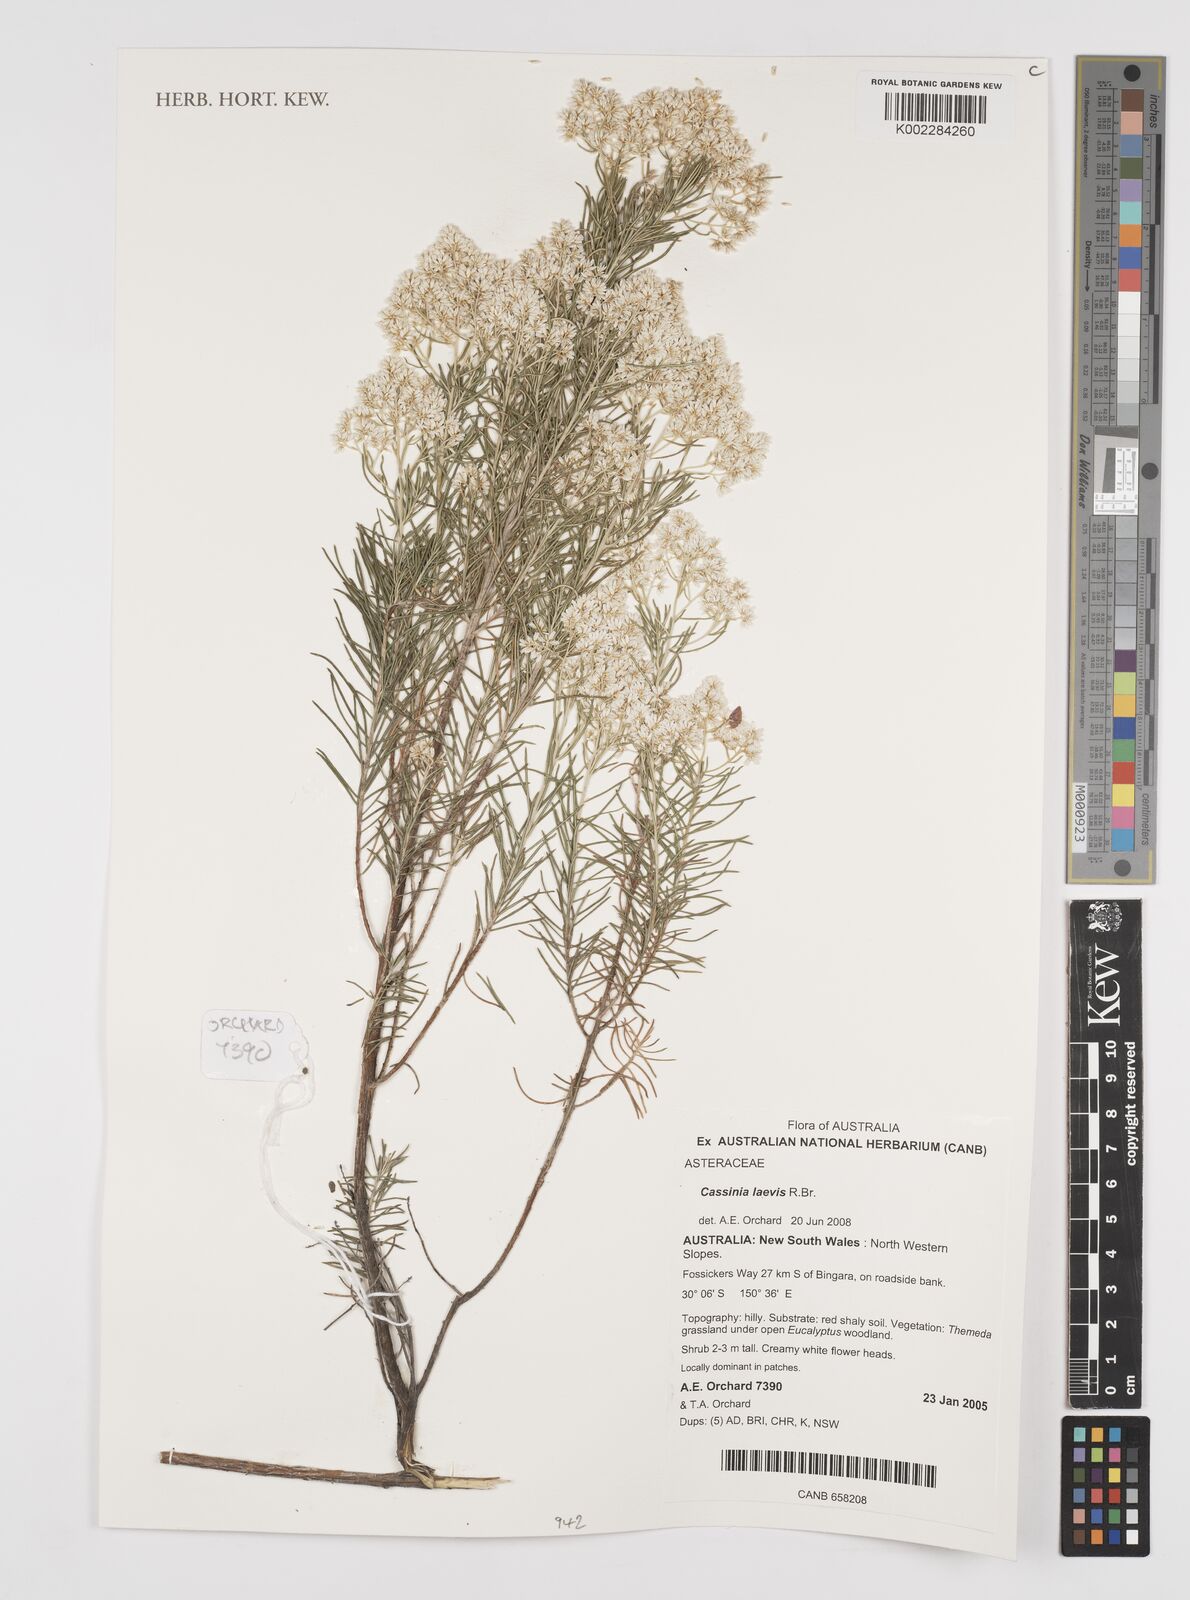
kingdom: Plantae
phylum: Tracheophyta
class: Magnoliopsida
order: Asterales
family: Asteraceae
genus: Cassinia
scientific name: Cassinia laevis
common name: Coughbush
